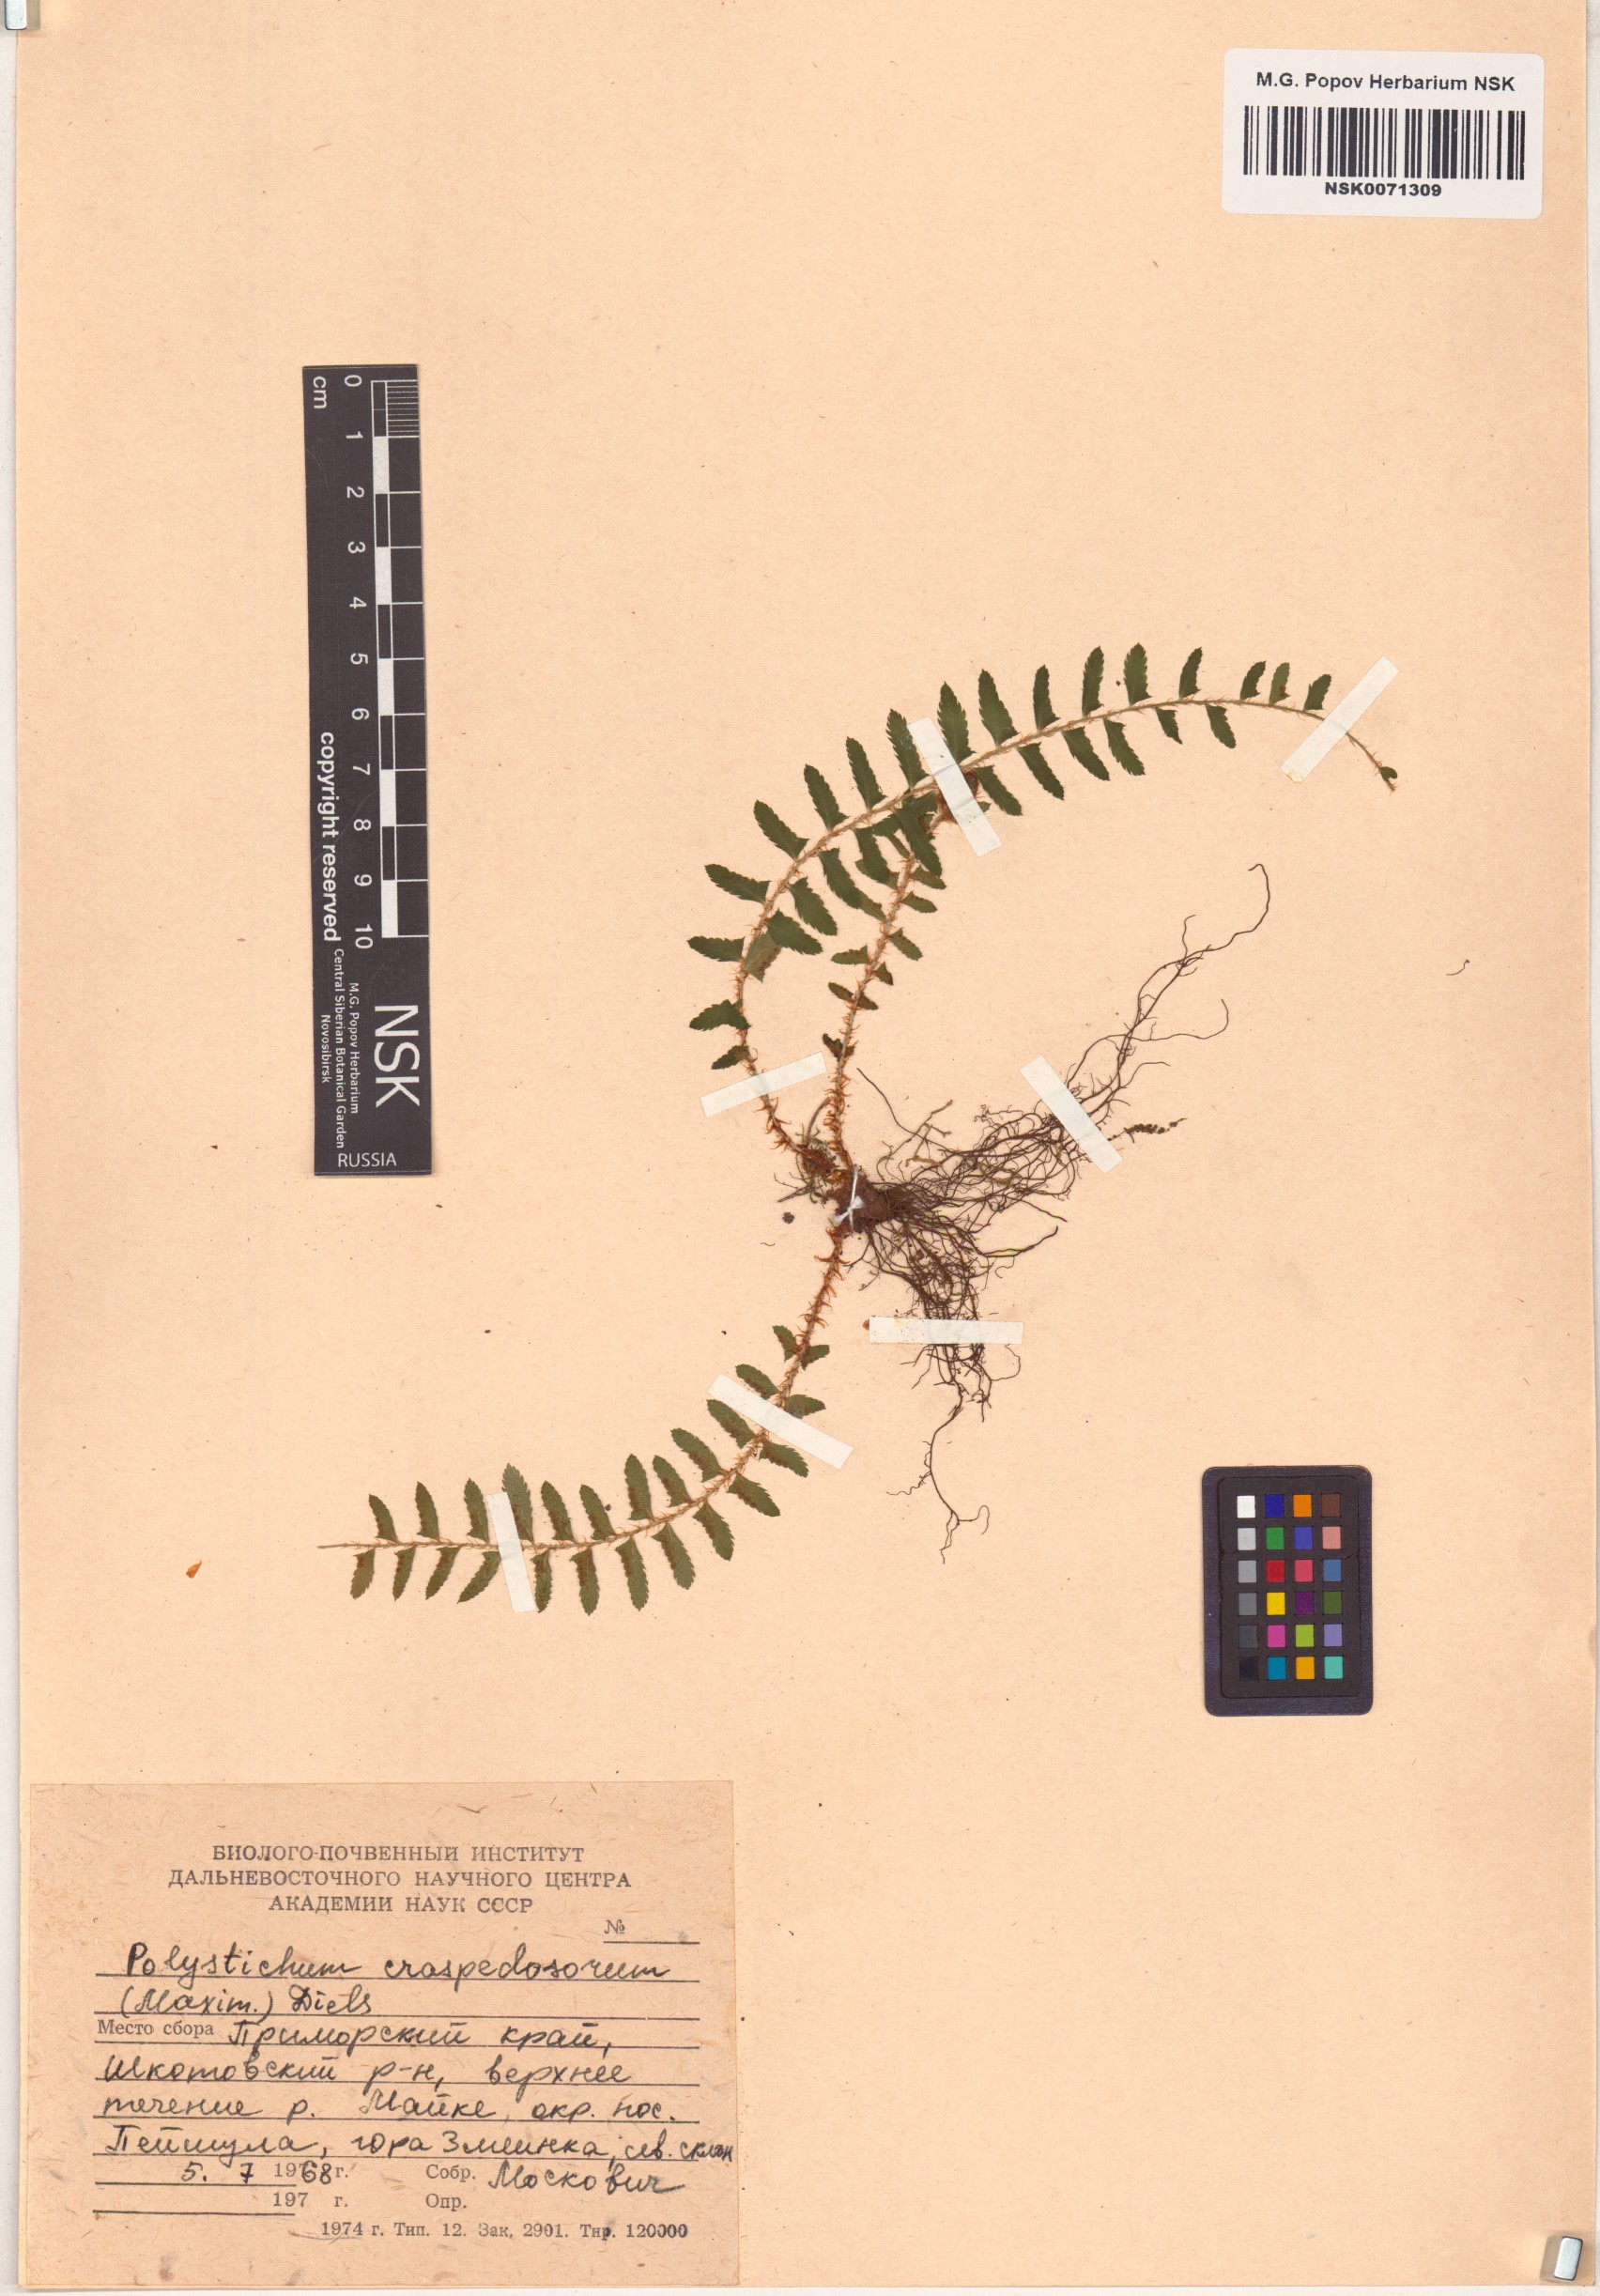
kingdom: Plantae
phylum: Tracheophyta
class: Polypodiopsida
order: Polypodiales
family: Dryopteridaceae
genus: Polystichum
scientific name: Polystichum craspedosorum
